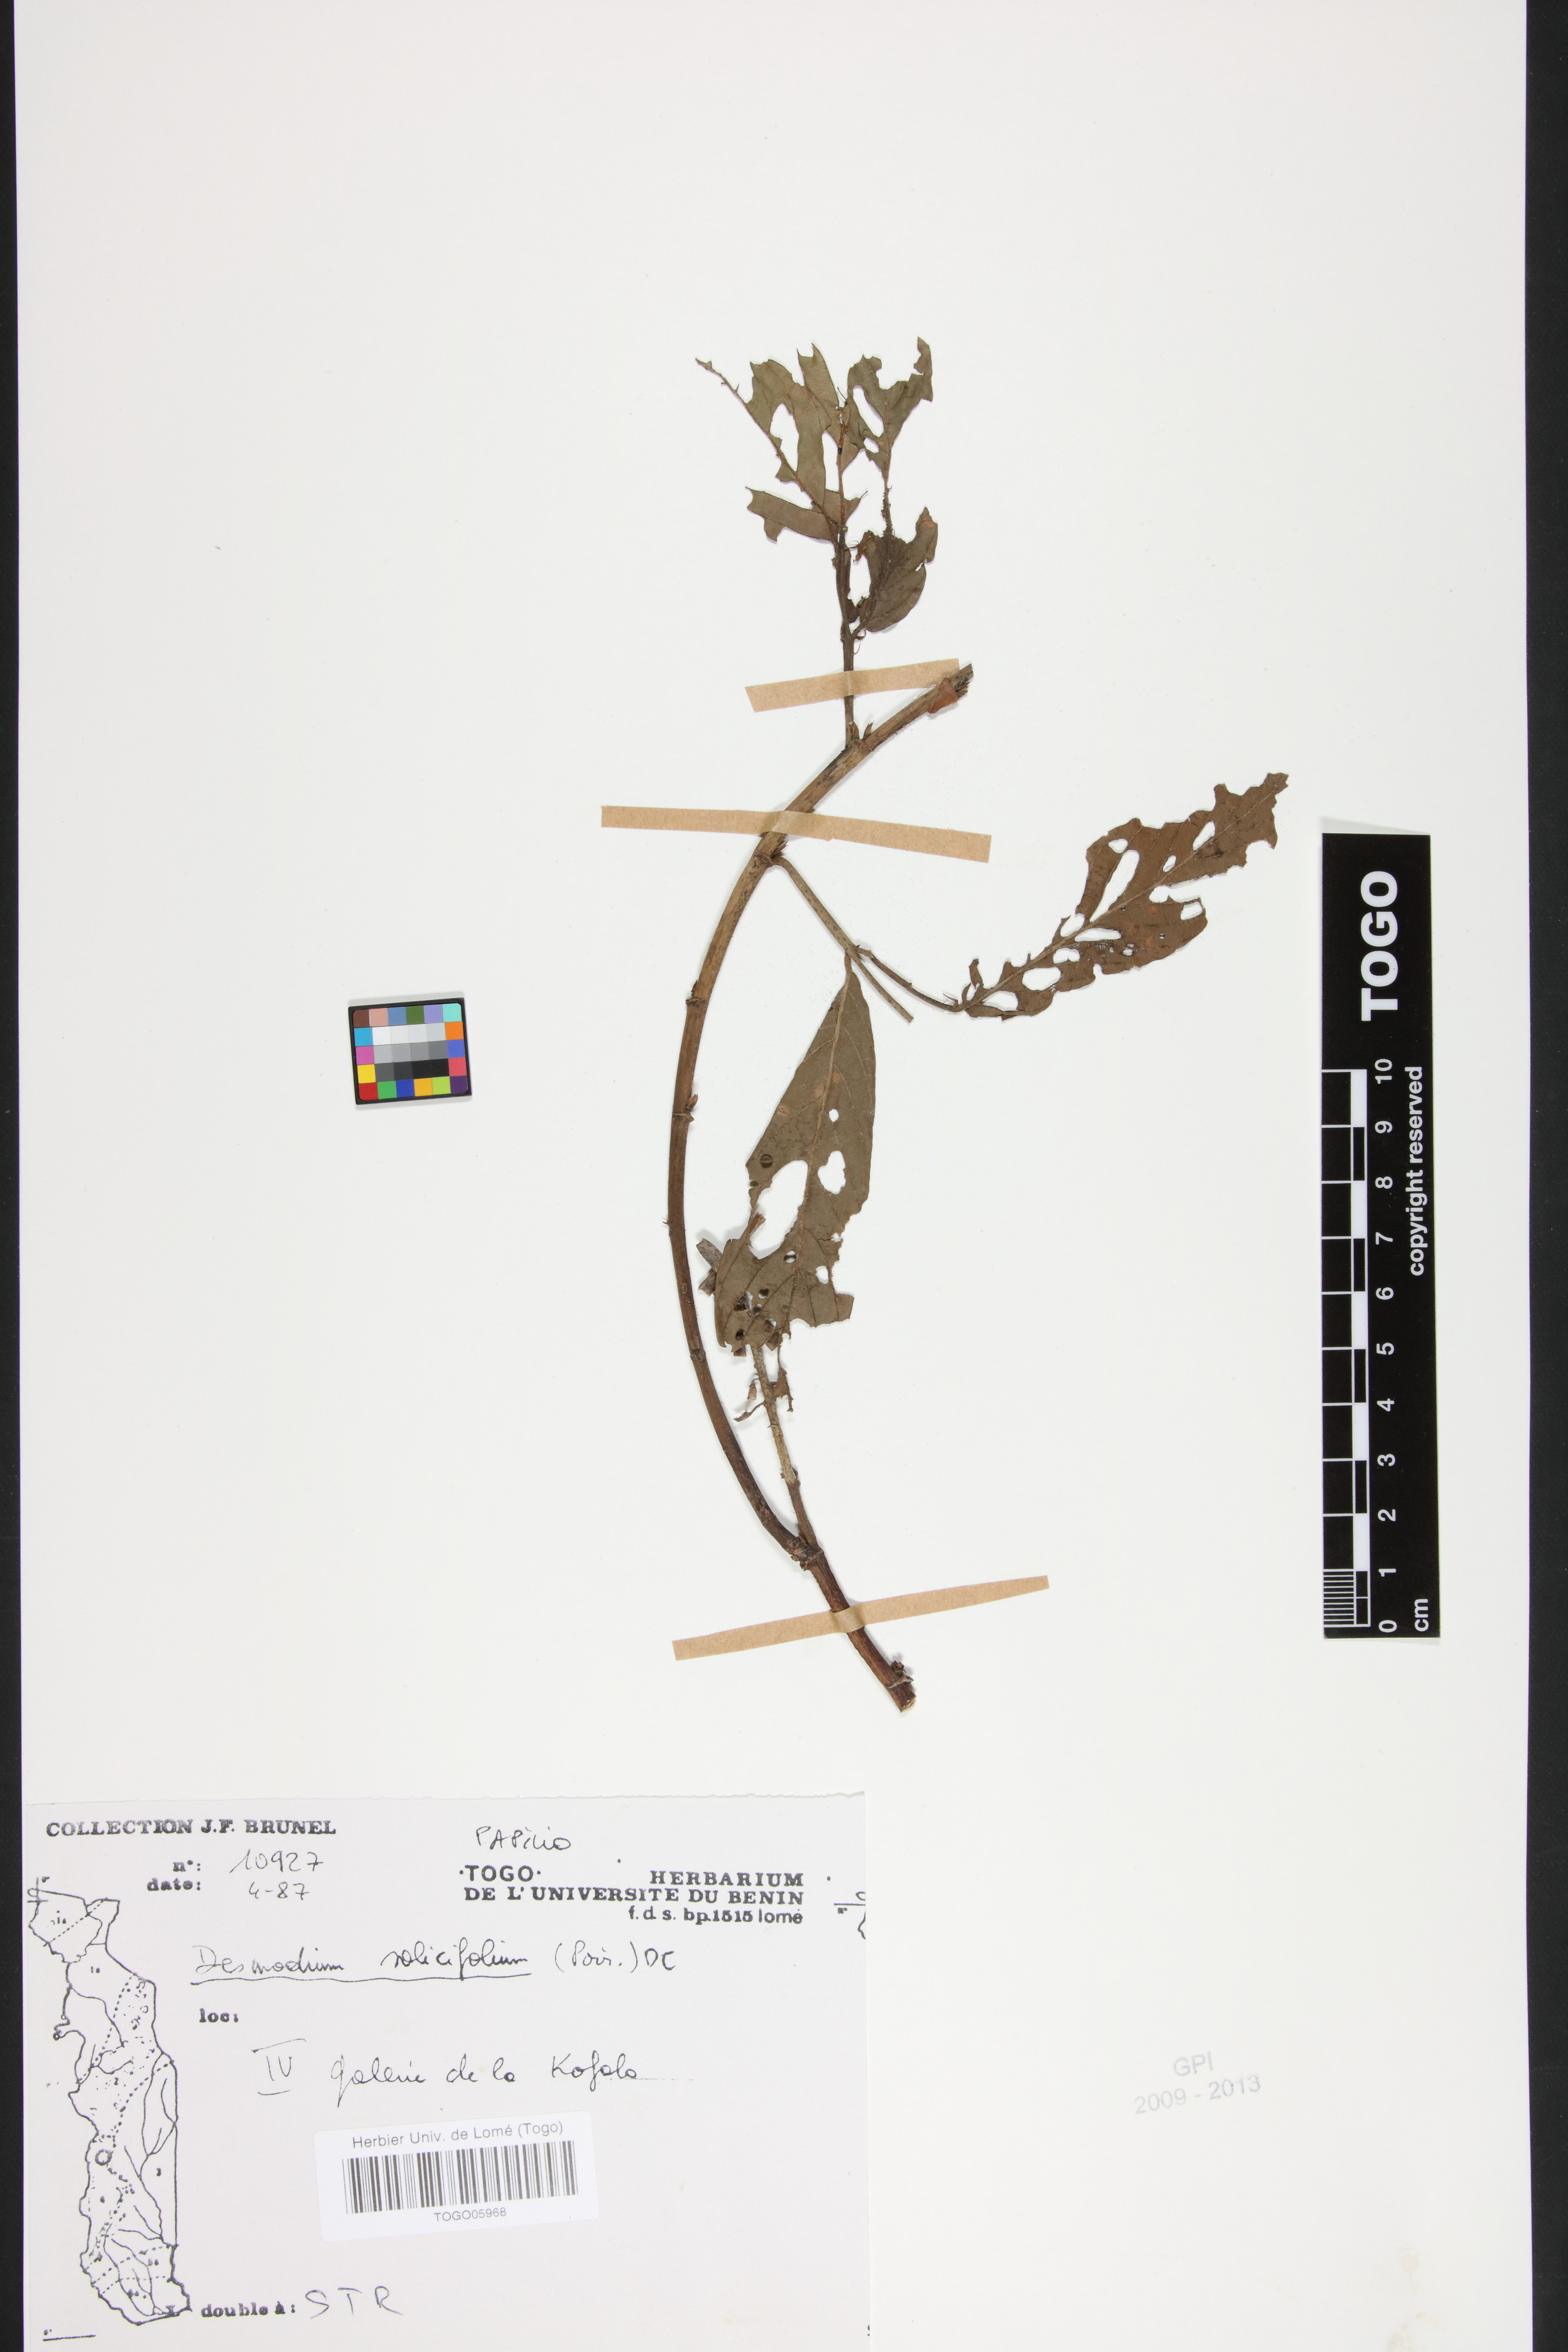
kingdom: Plantae
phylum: Tracheophyta
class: Magnoliopsida
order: Fabales
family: Fabaceae
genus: Pleurolobus
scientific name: Pleurolobus salicifolius
